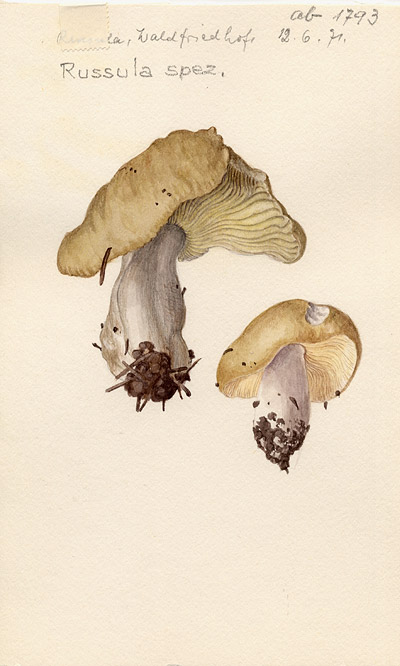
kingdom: Fungi
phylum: Basidiomycota
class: Agaricomycetes
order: Russulales
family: Russulaceae
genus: Russula
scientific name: Russula
